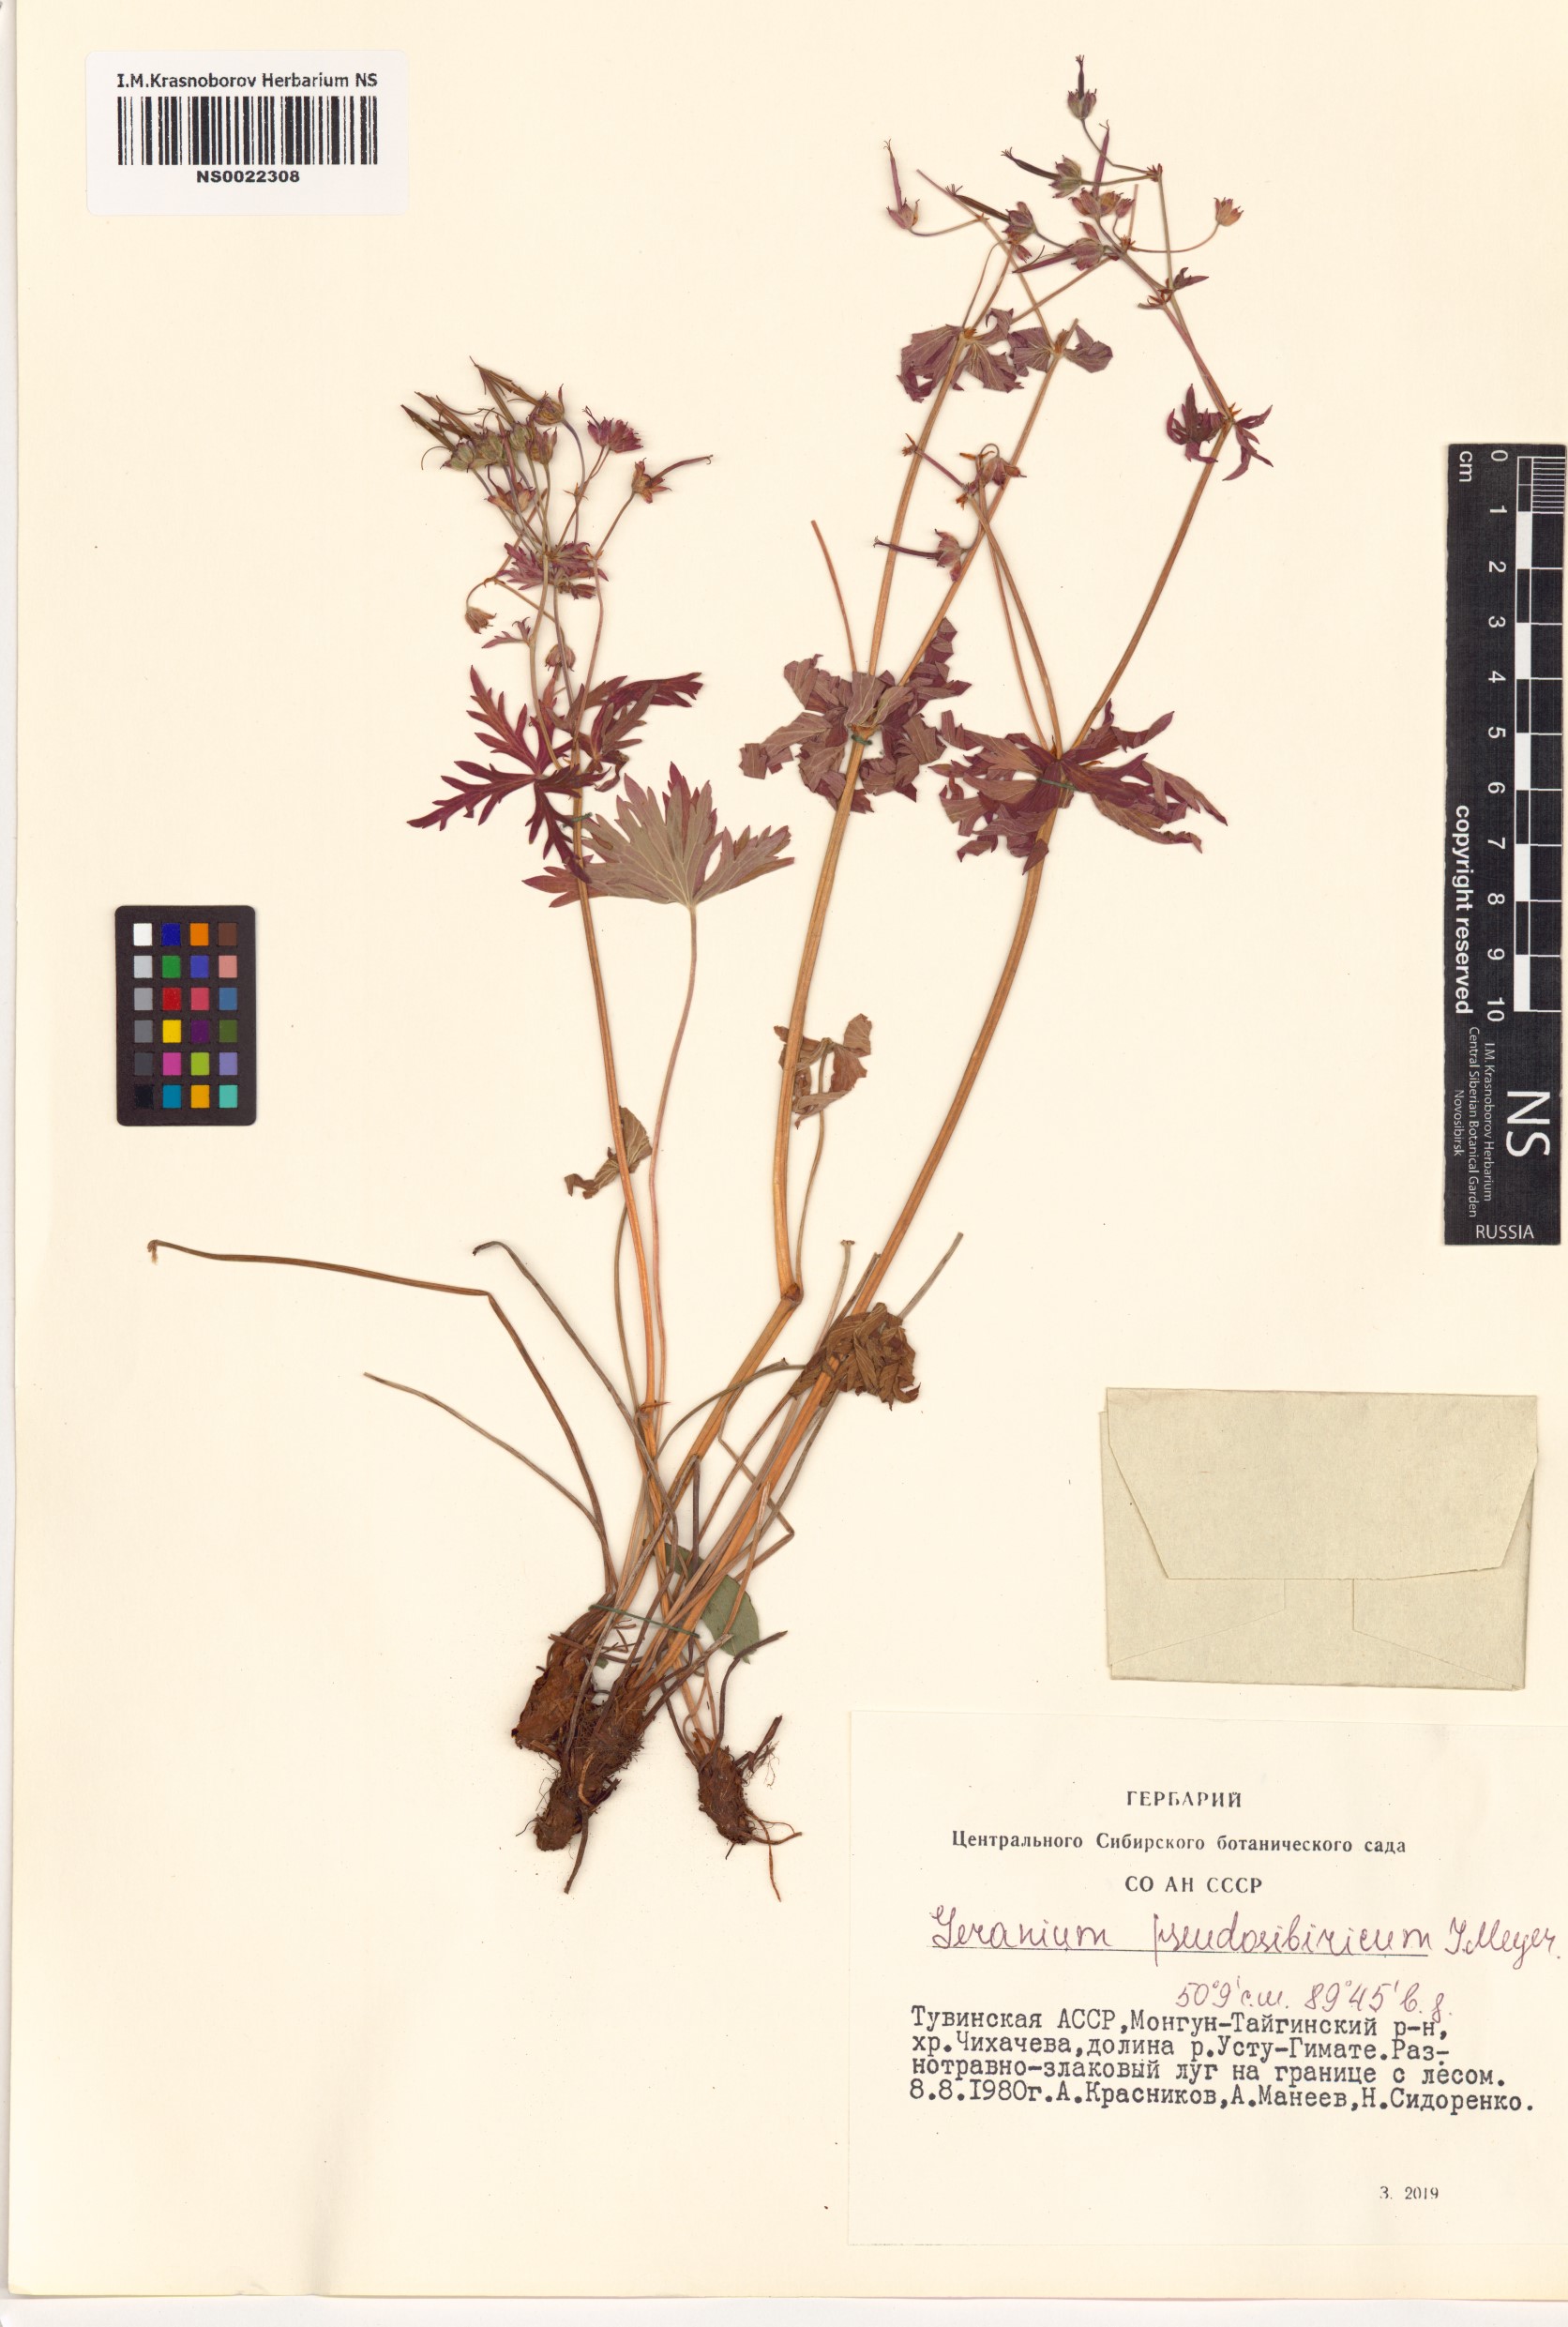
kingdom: Plantae
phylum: Tracheophyta
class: Magnoliopsida
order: Geraniales
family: Geraniaceae
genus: Geranium
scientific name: Geranium pseudosibiricum
